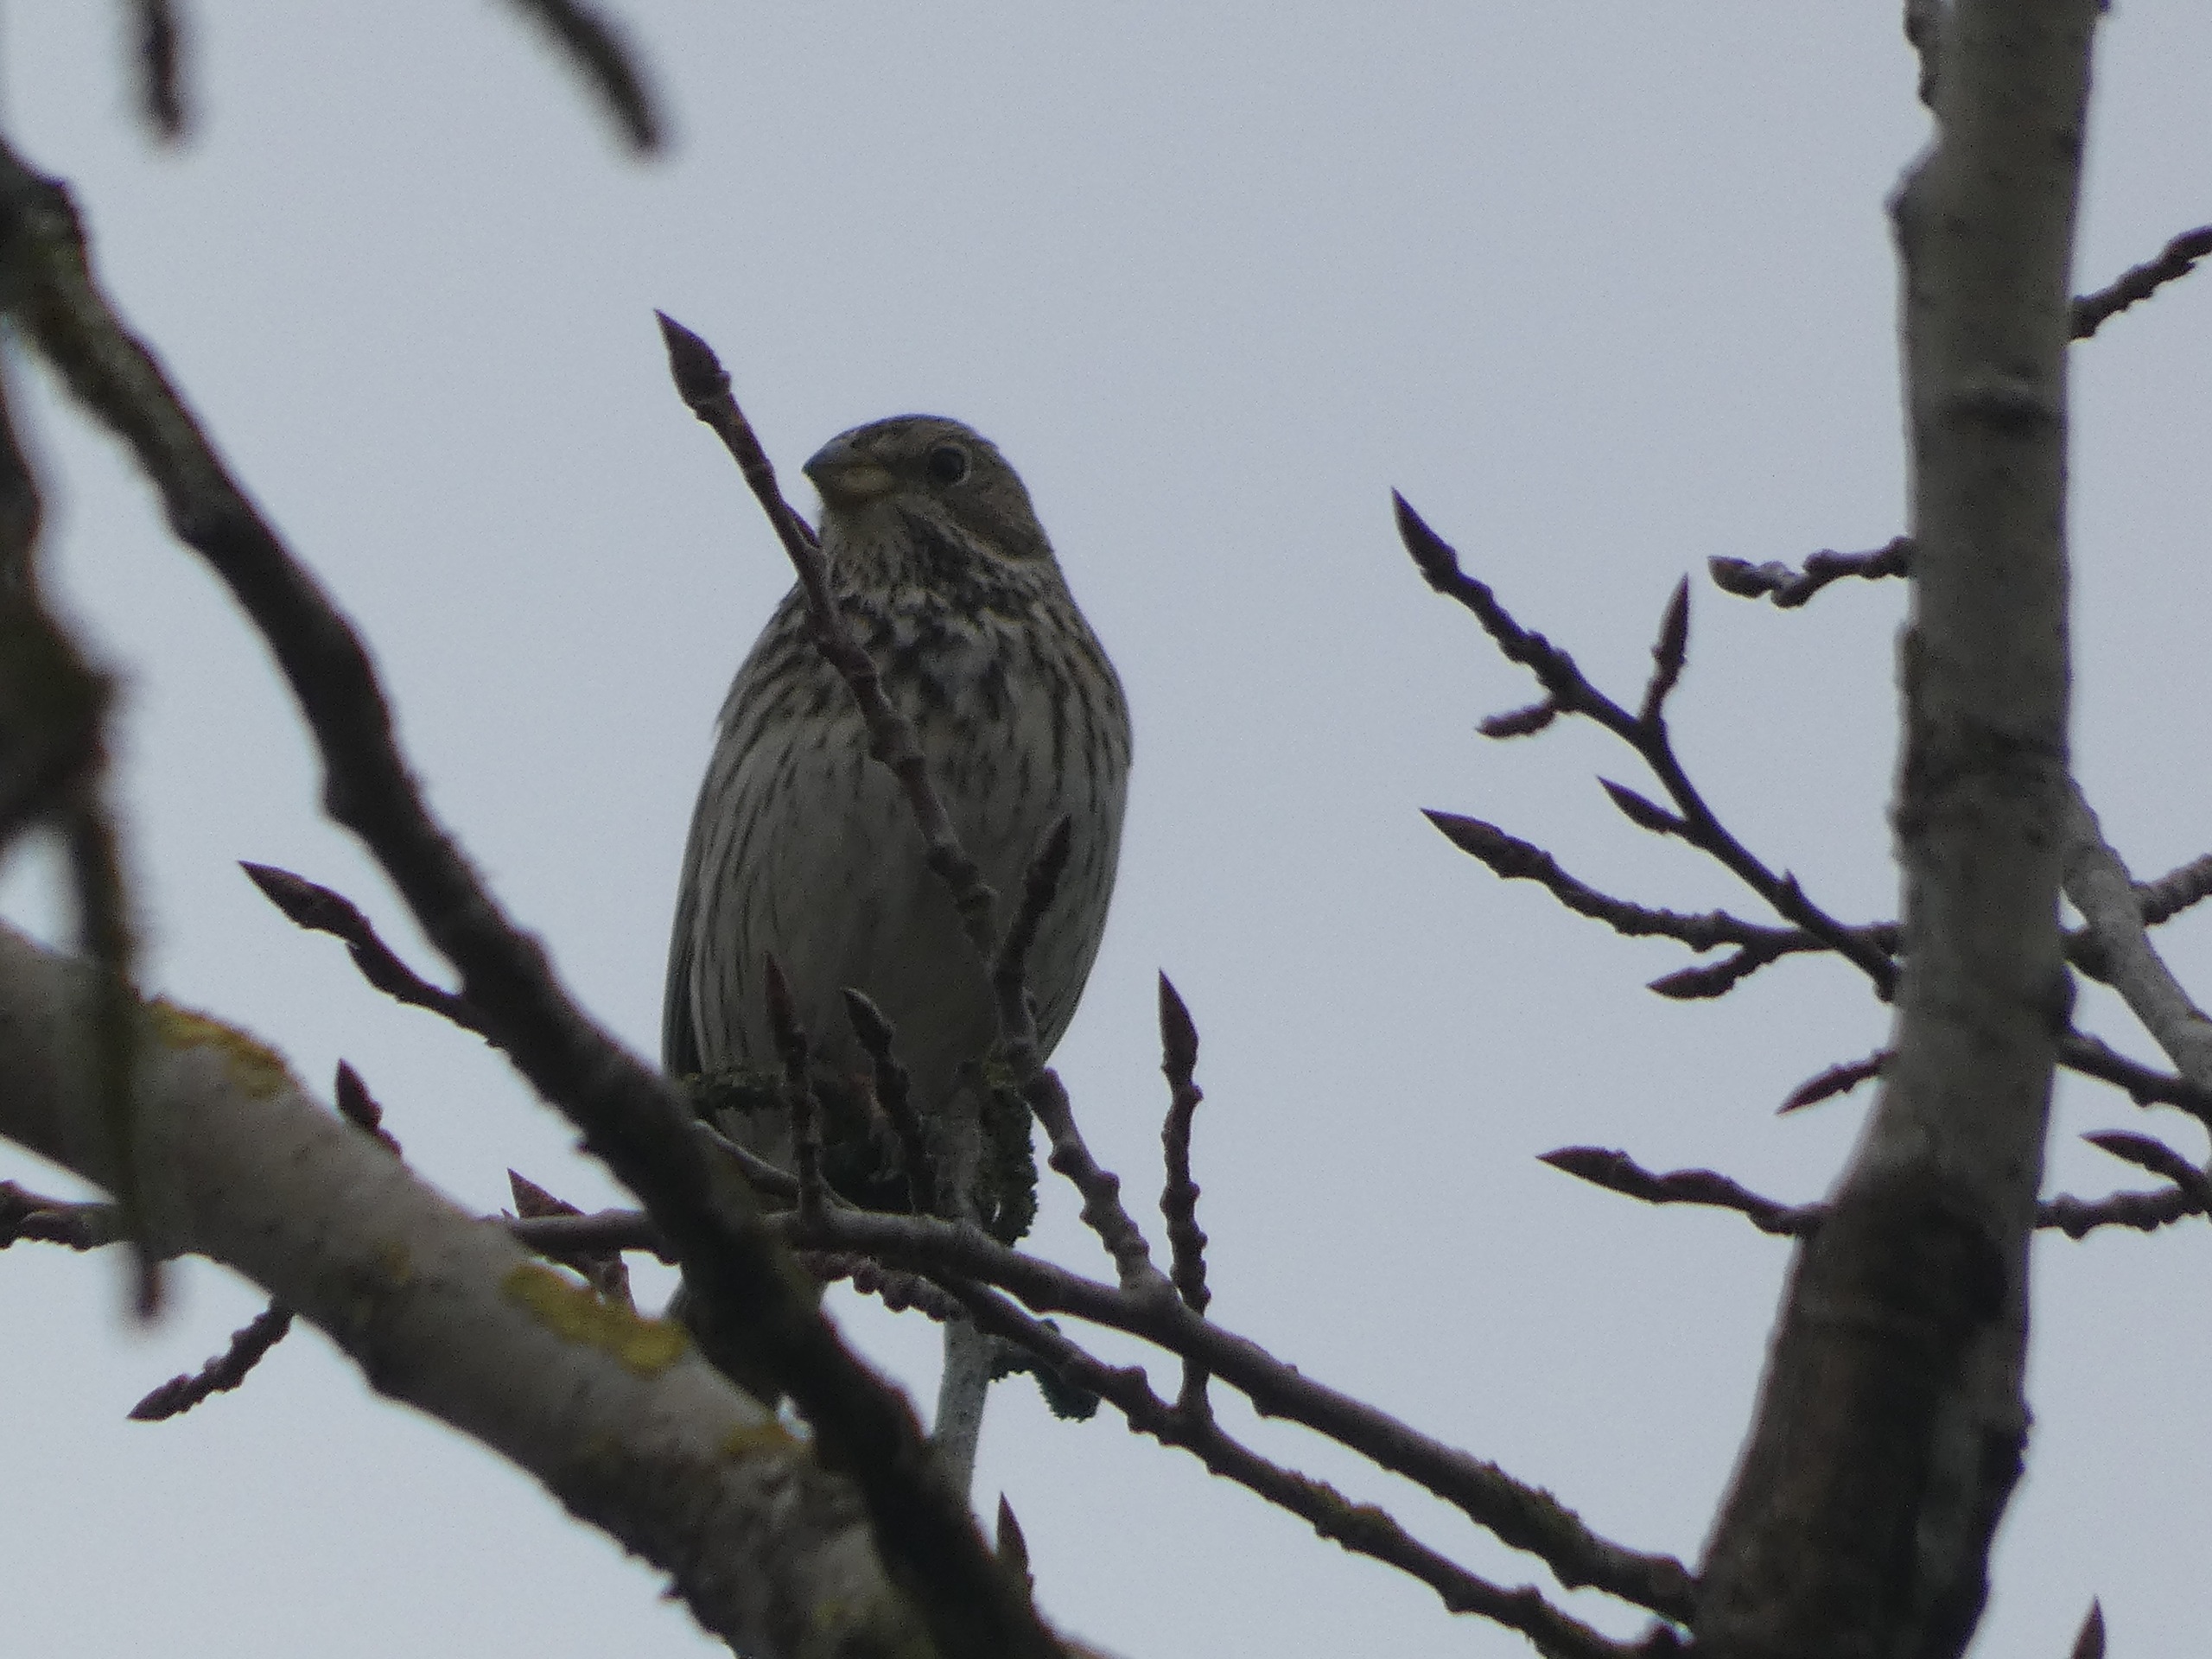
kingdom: Animalia
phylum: Chordata
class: Aves
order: Passeriformes
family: Emberizidae
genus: Emberiza
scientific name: Emberiza calandra
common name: Bomlærke
